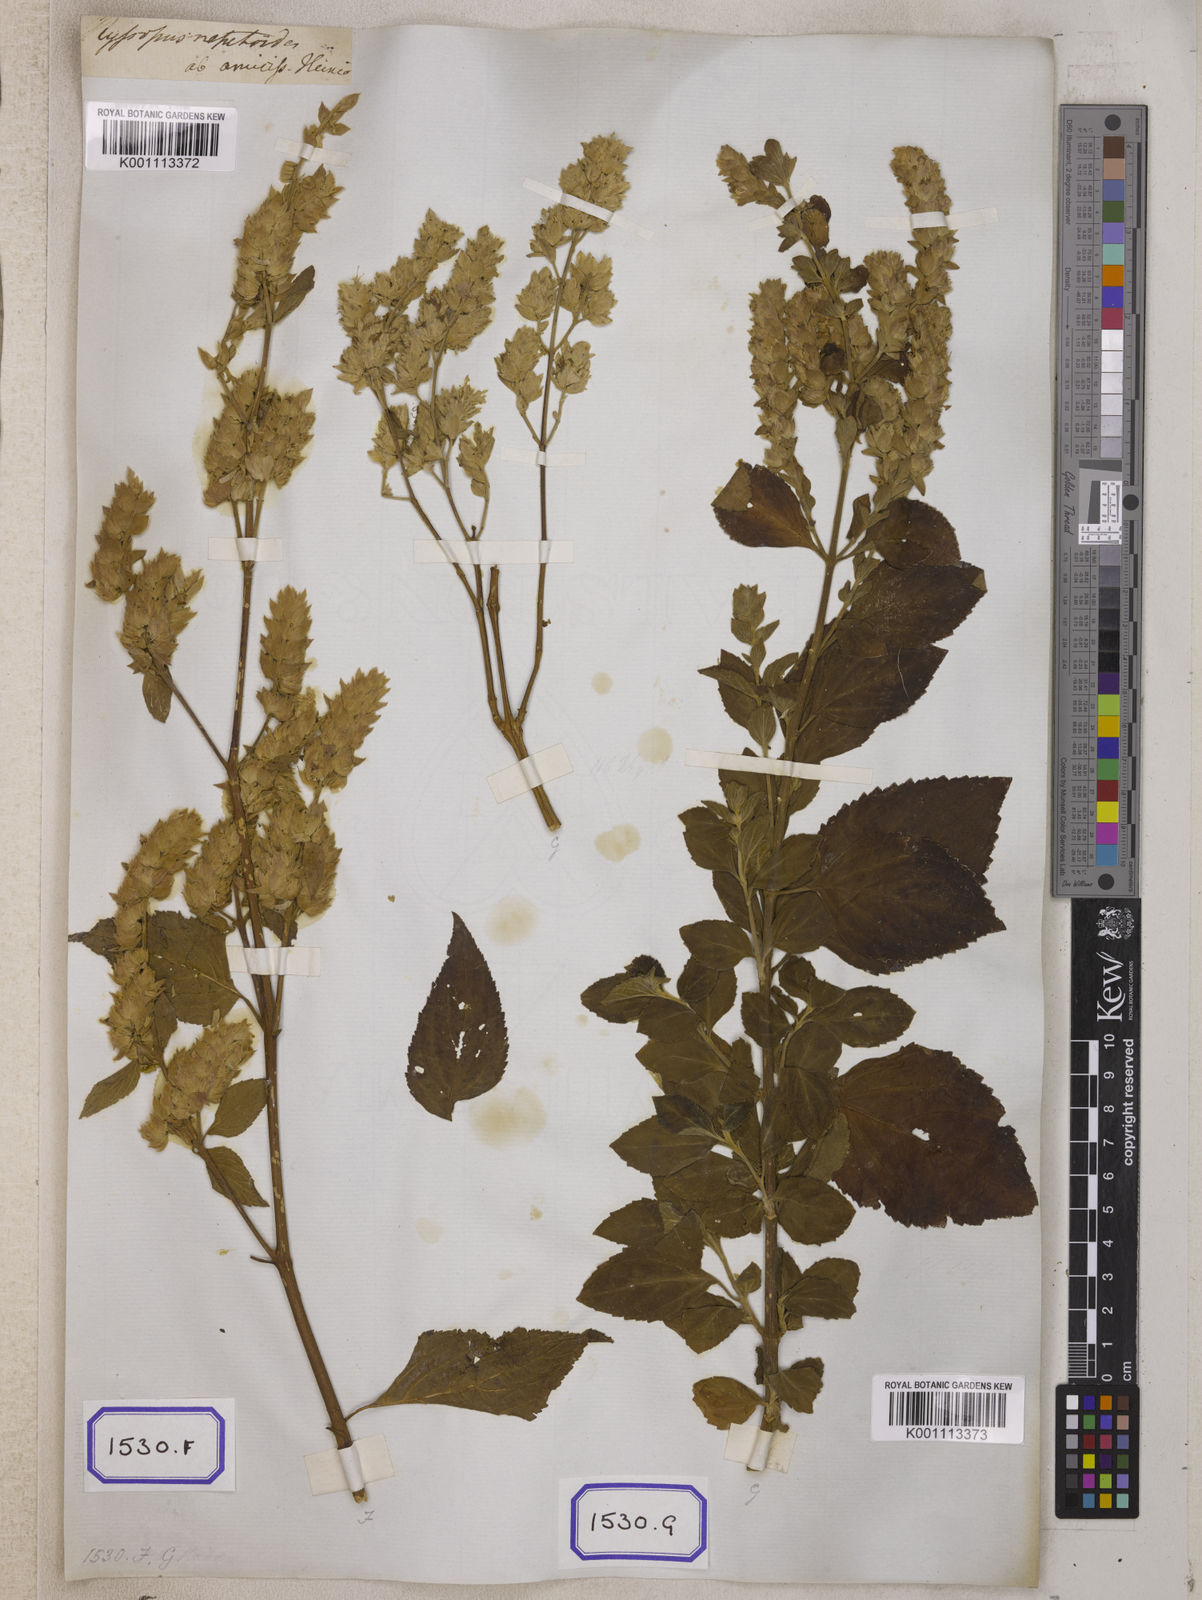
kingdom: Plantae
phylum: Tracheophyta
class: Magnoliopsida
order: Lamiales
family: Lamiaceae
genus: Pogostemon
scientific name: Pogostemon
